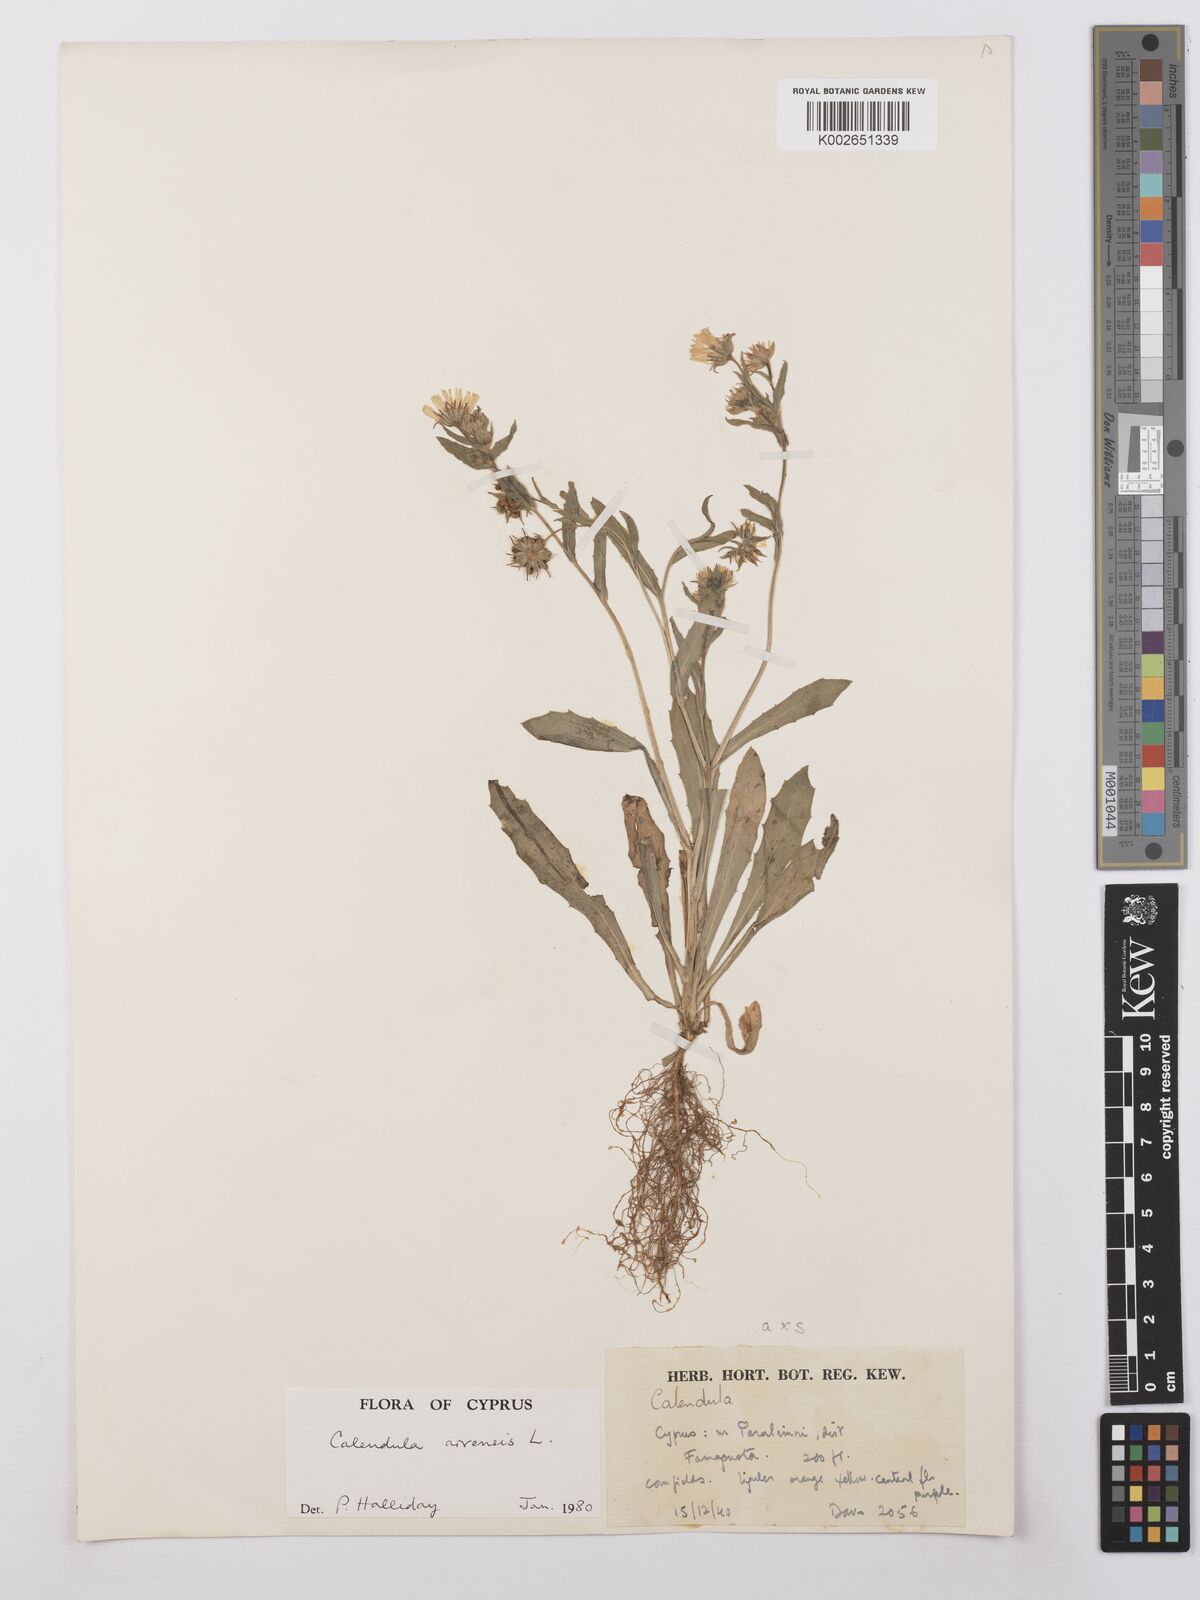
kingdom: Plantae
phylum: Tracheophyta
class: Magnoliopsida
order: Asterales
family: Asteraceae
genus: Calendula
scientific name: Calendula arvensis
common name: Field marigold
